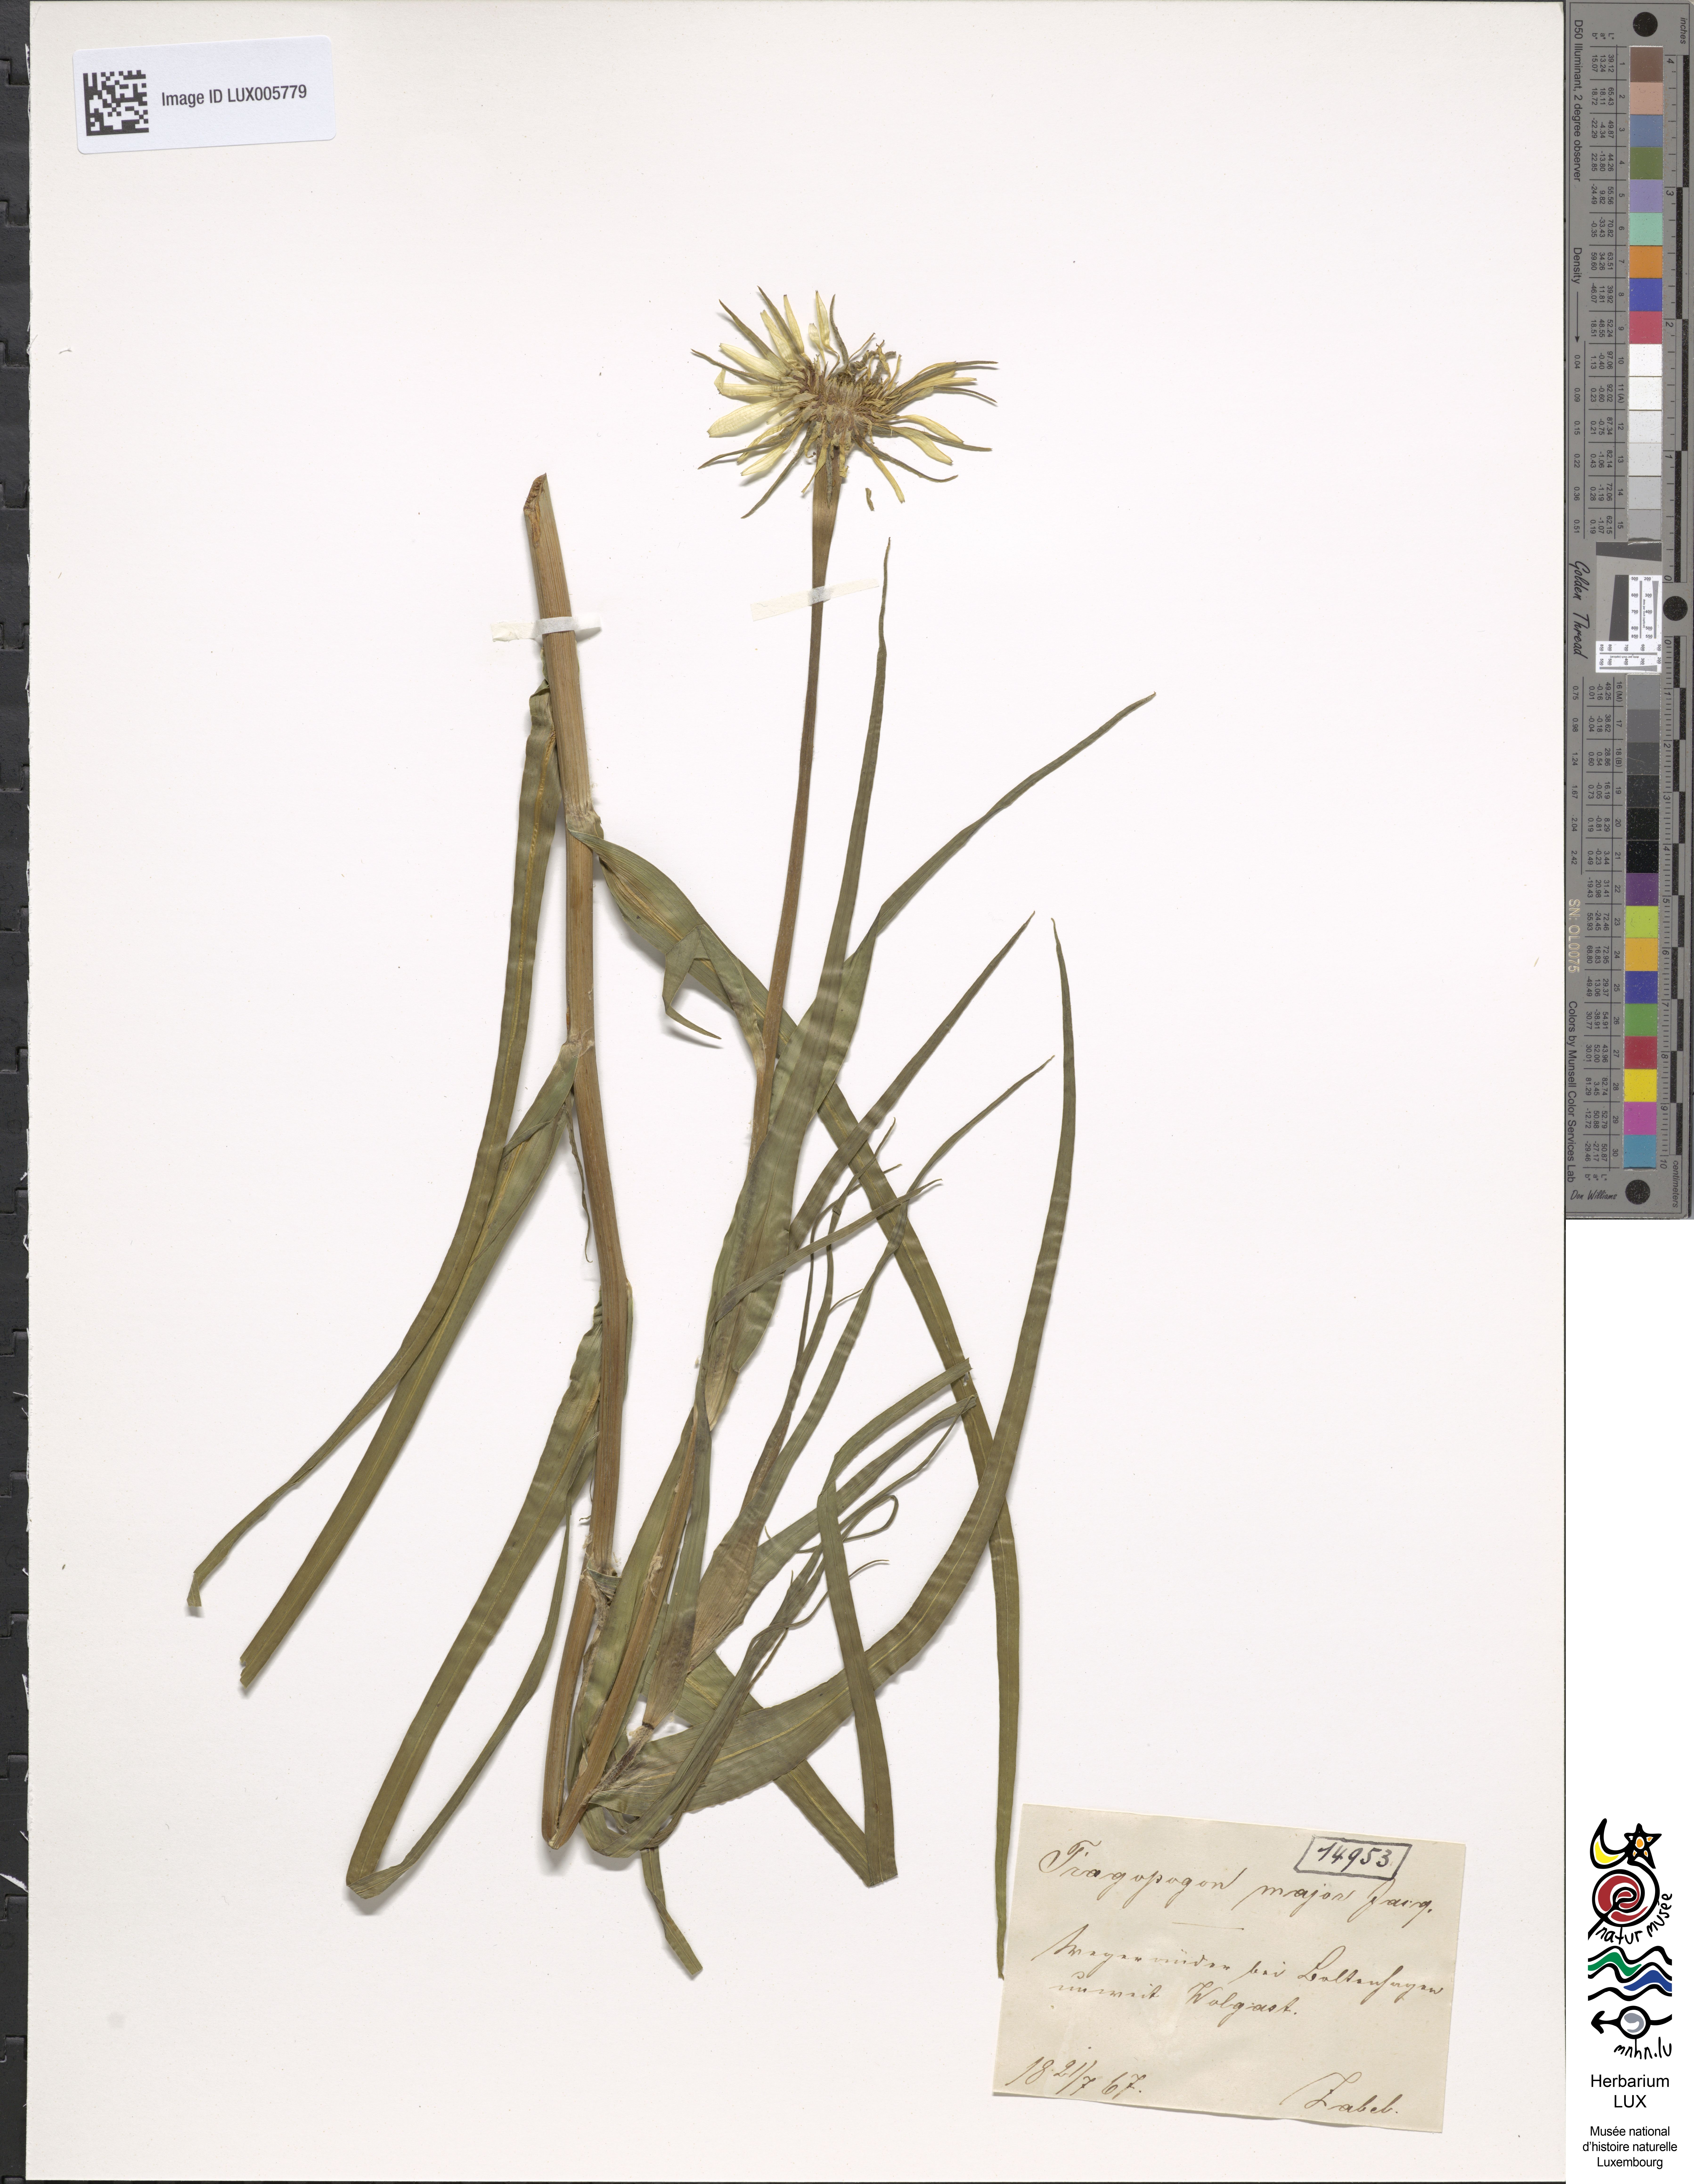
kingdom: Plantae
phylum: Tracheophyta
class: Magnoliopsida
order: Asterales
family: Asteraceae
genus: Tragopogon
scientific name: Tragopogon dubius
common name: Yellow salsify
